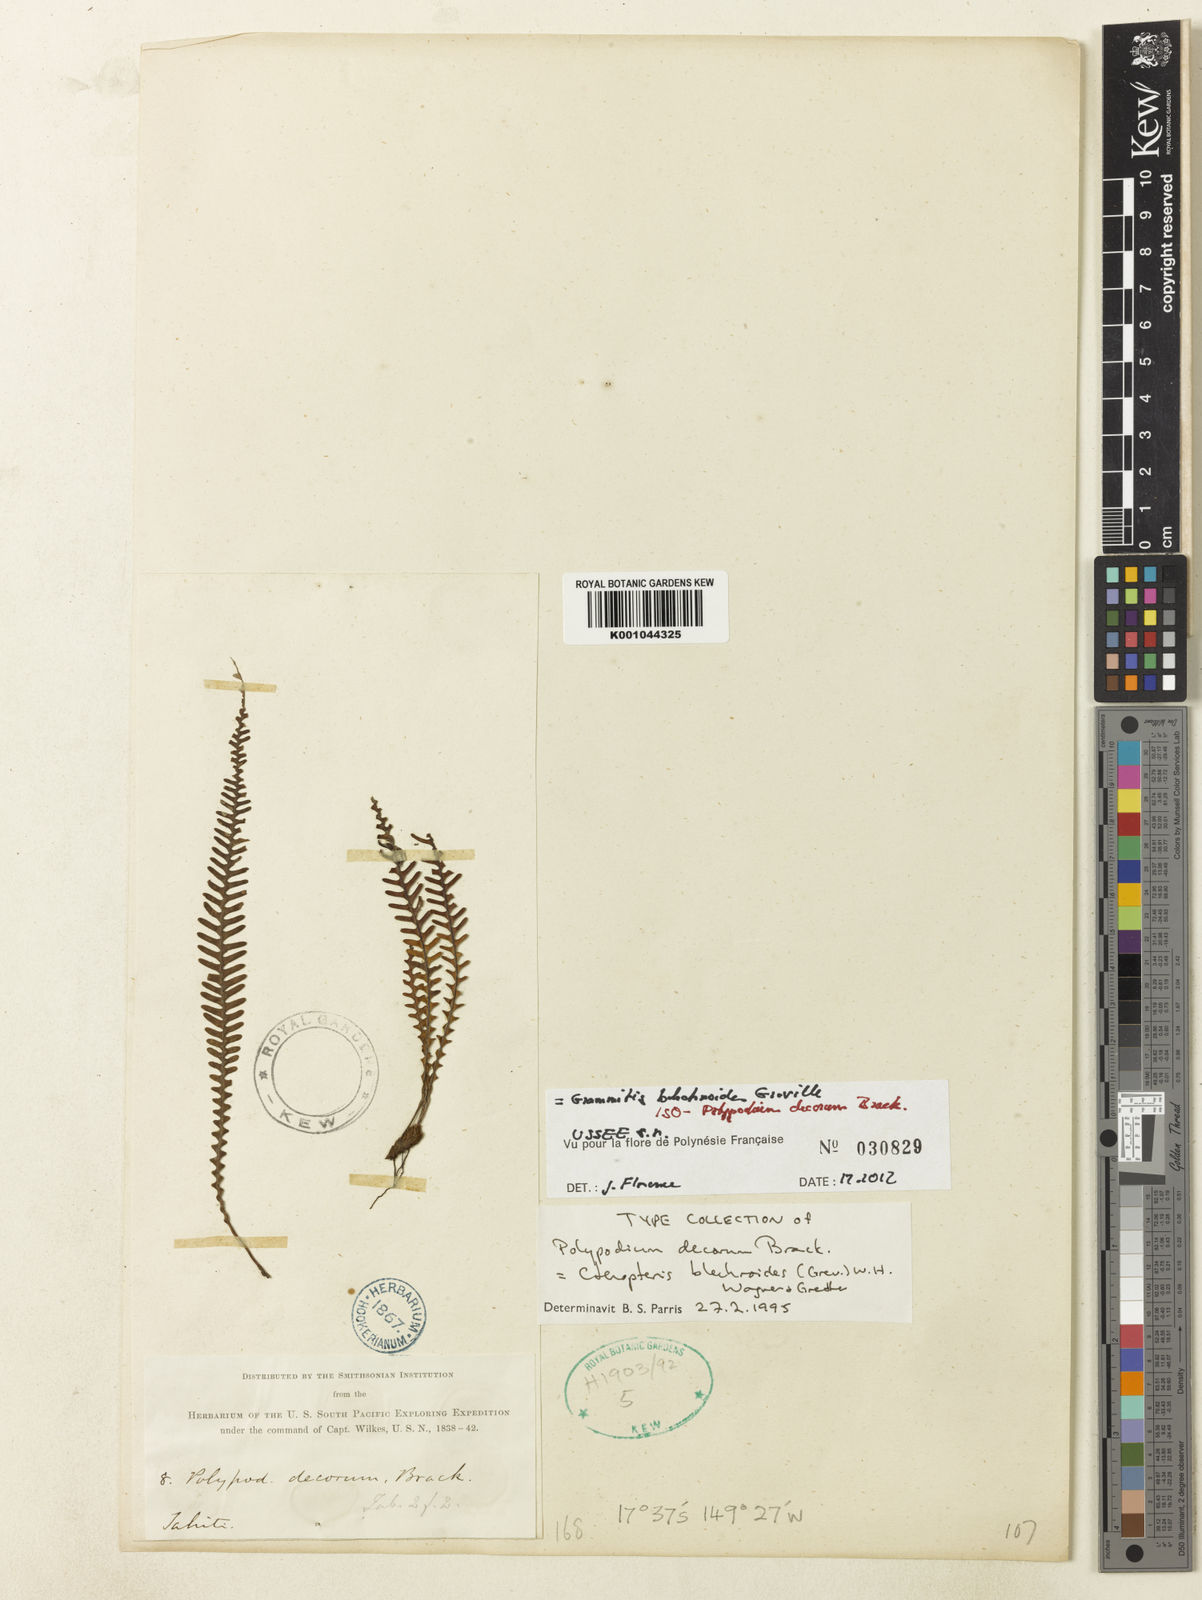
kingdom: Plantae
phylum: Tracheophyta
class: Polypodiopsida
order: Polypodiales
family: Polypodiaceae
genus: Ctenopterella
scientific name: Ctenopterella blechnoides
